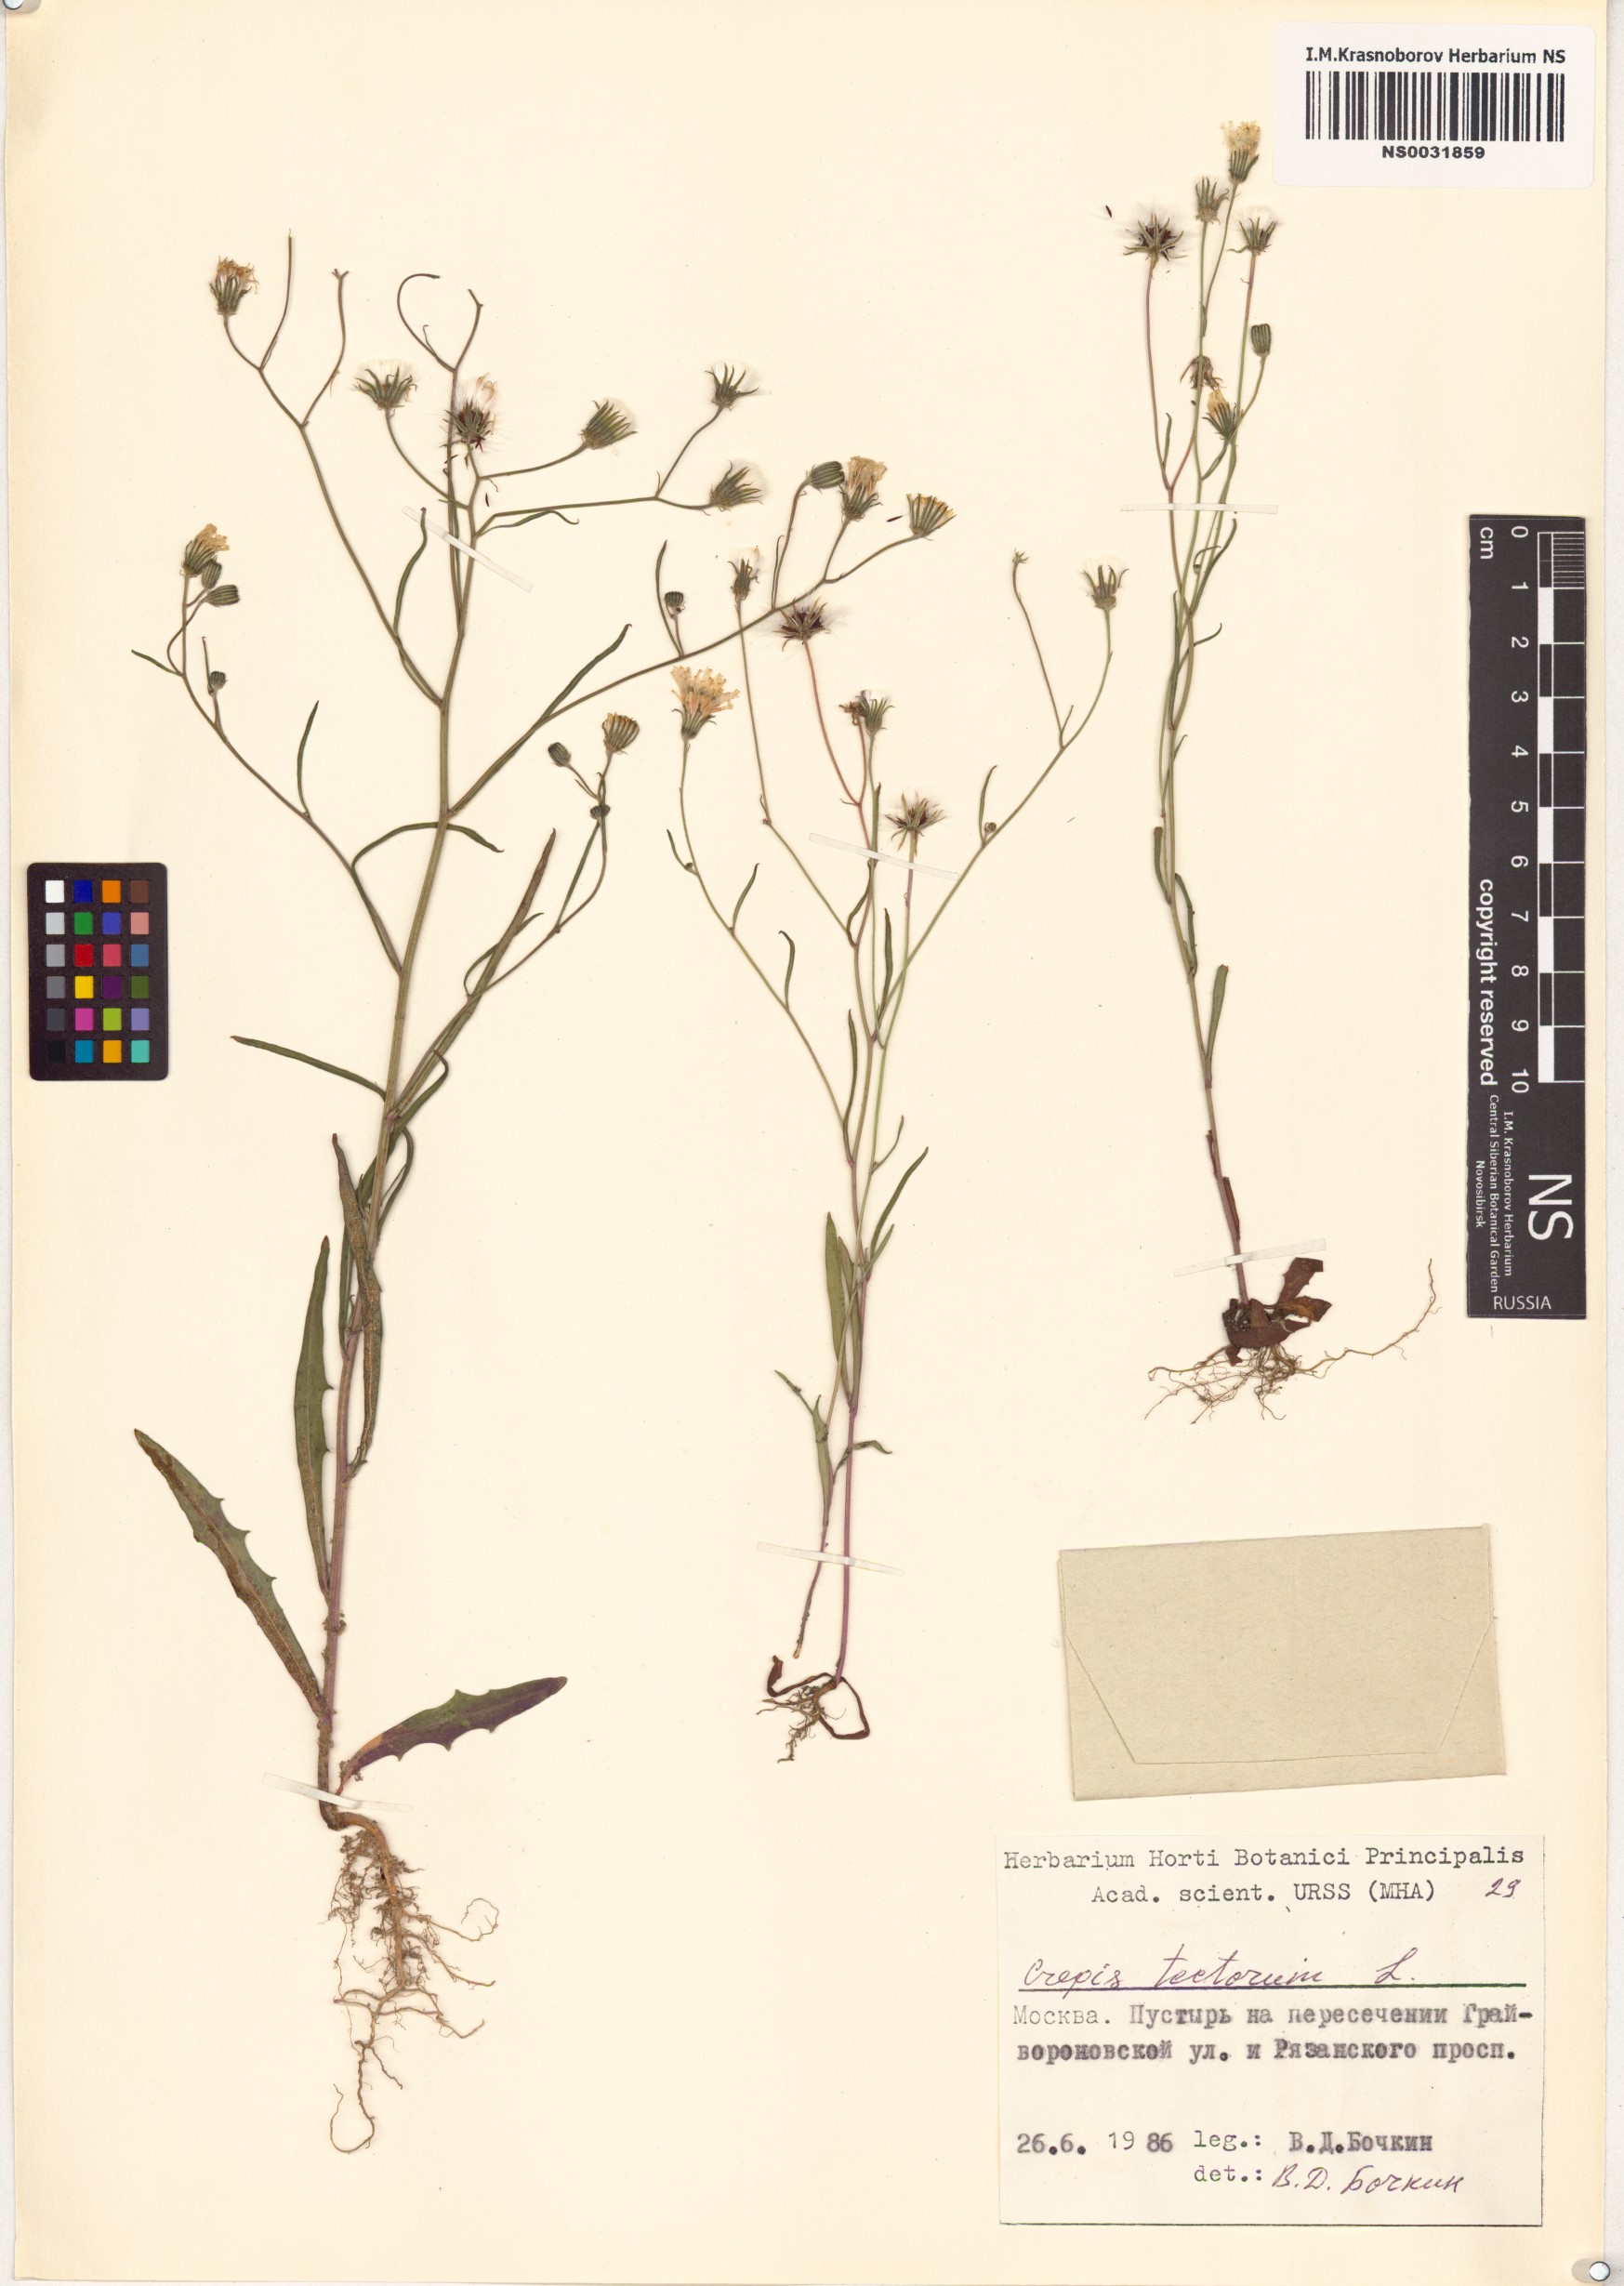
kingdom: Plantae
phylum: Tracheophyta
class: Magnoliopsida
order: Asterales
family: Asteraceae
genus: Crepis
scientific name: Crepis tectorum
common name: Narrow-leaved hawk's-beard
